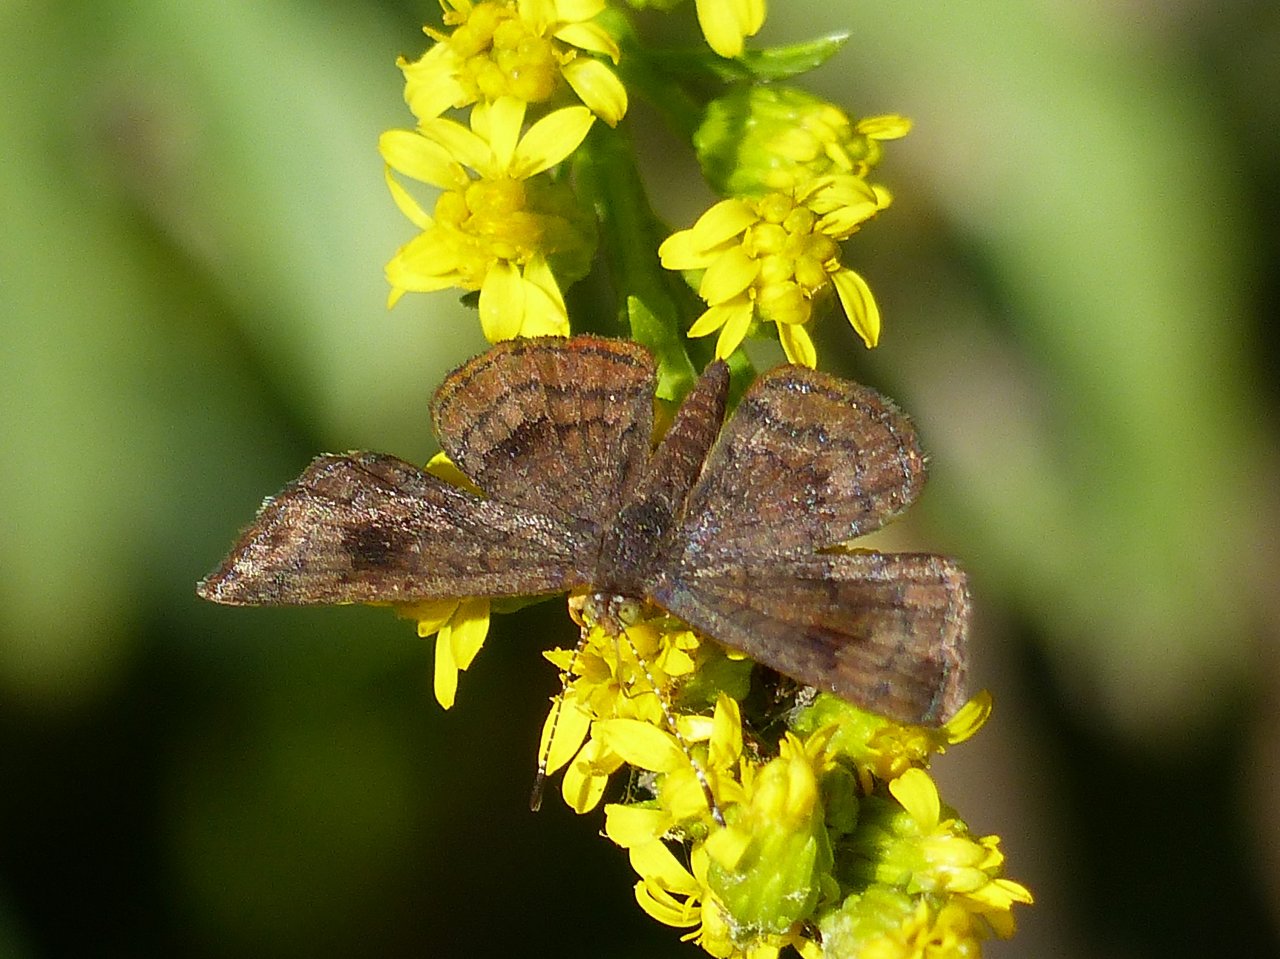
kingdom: Animalia
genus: Calephelis
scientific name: Calephelis nemesis
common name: Fatal Metalmark
